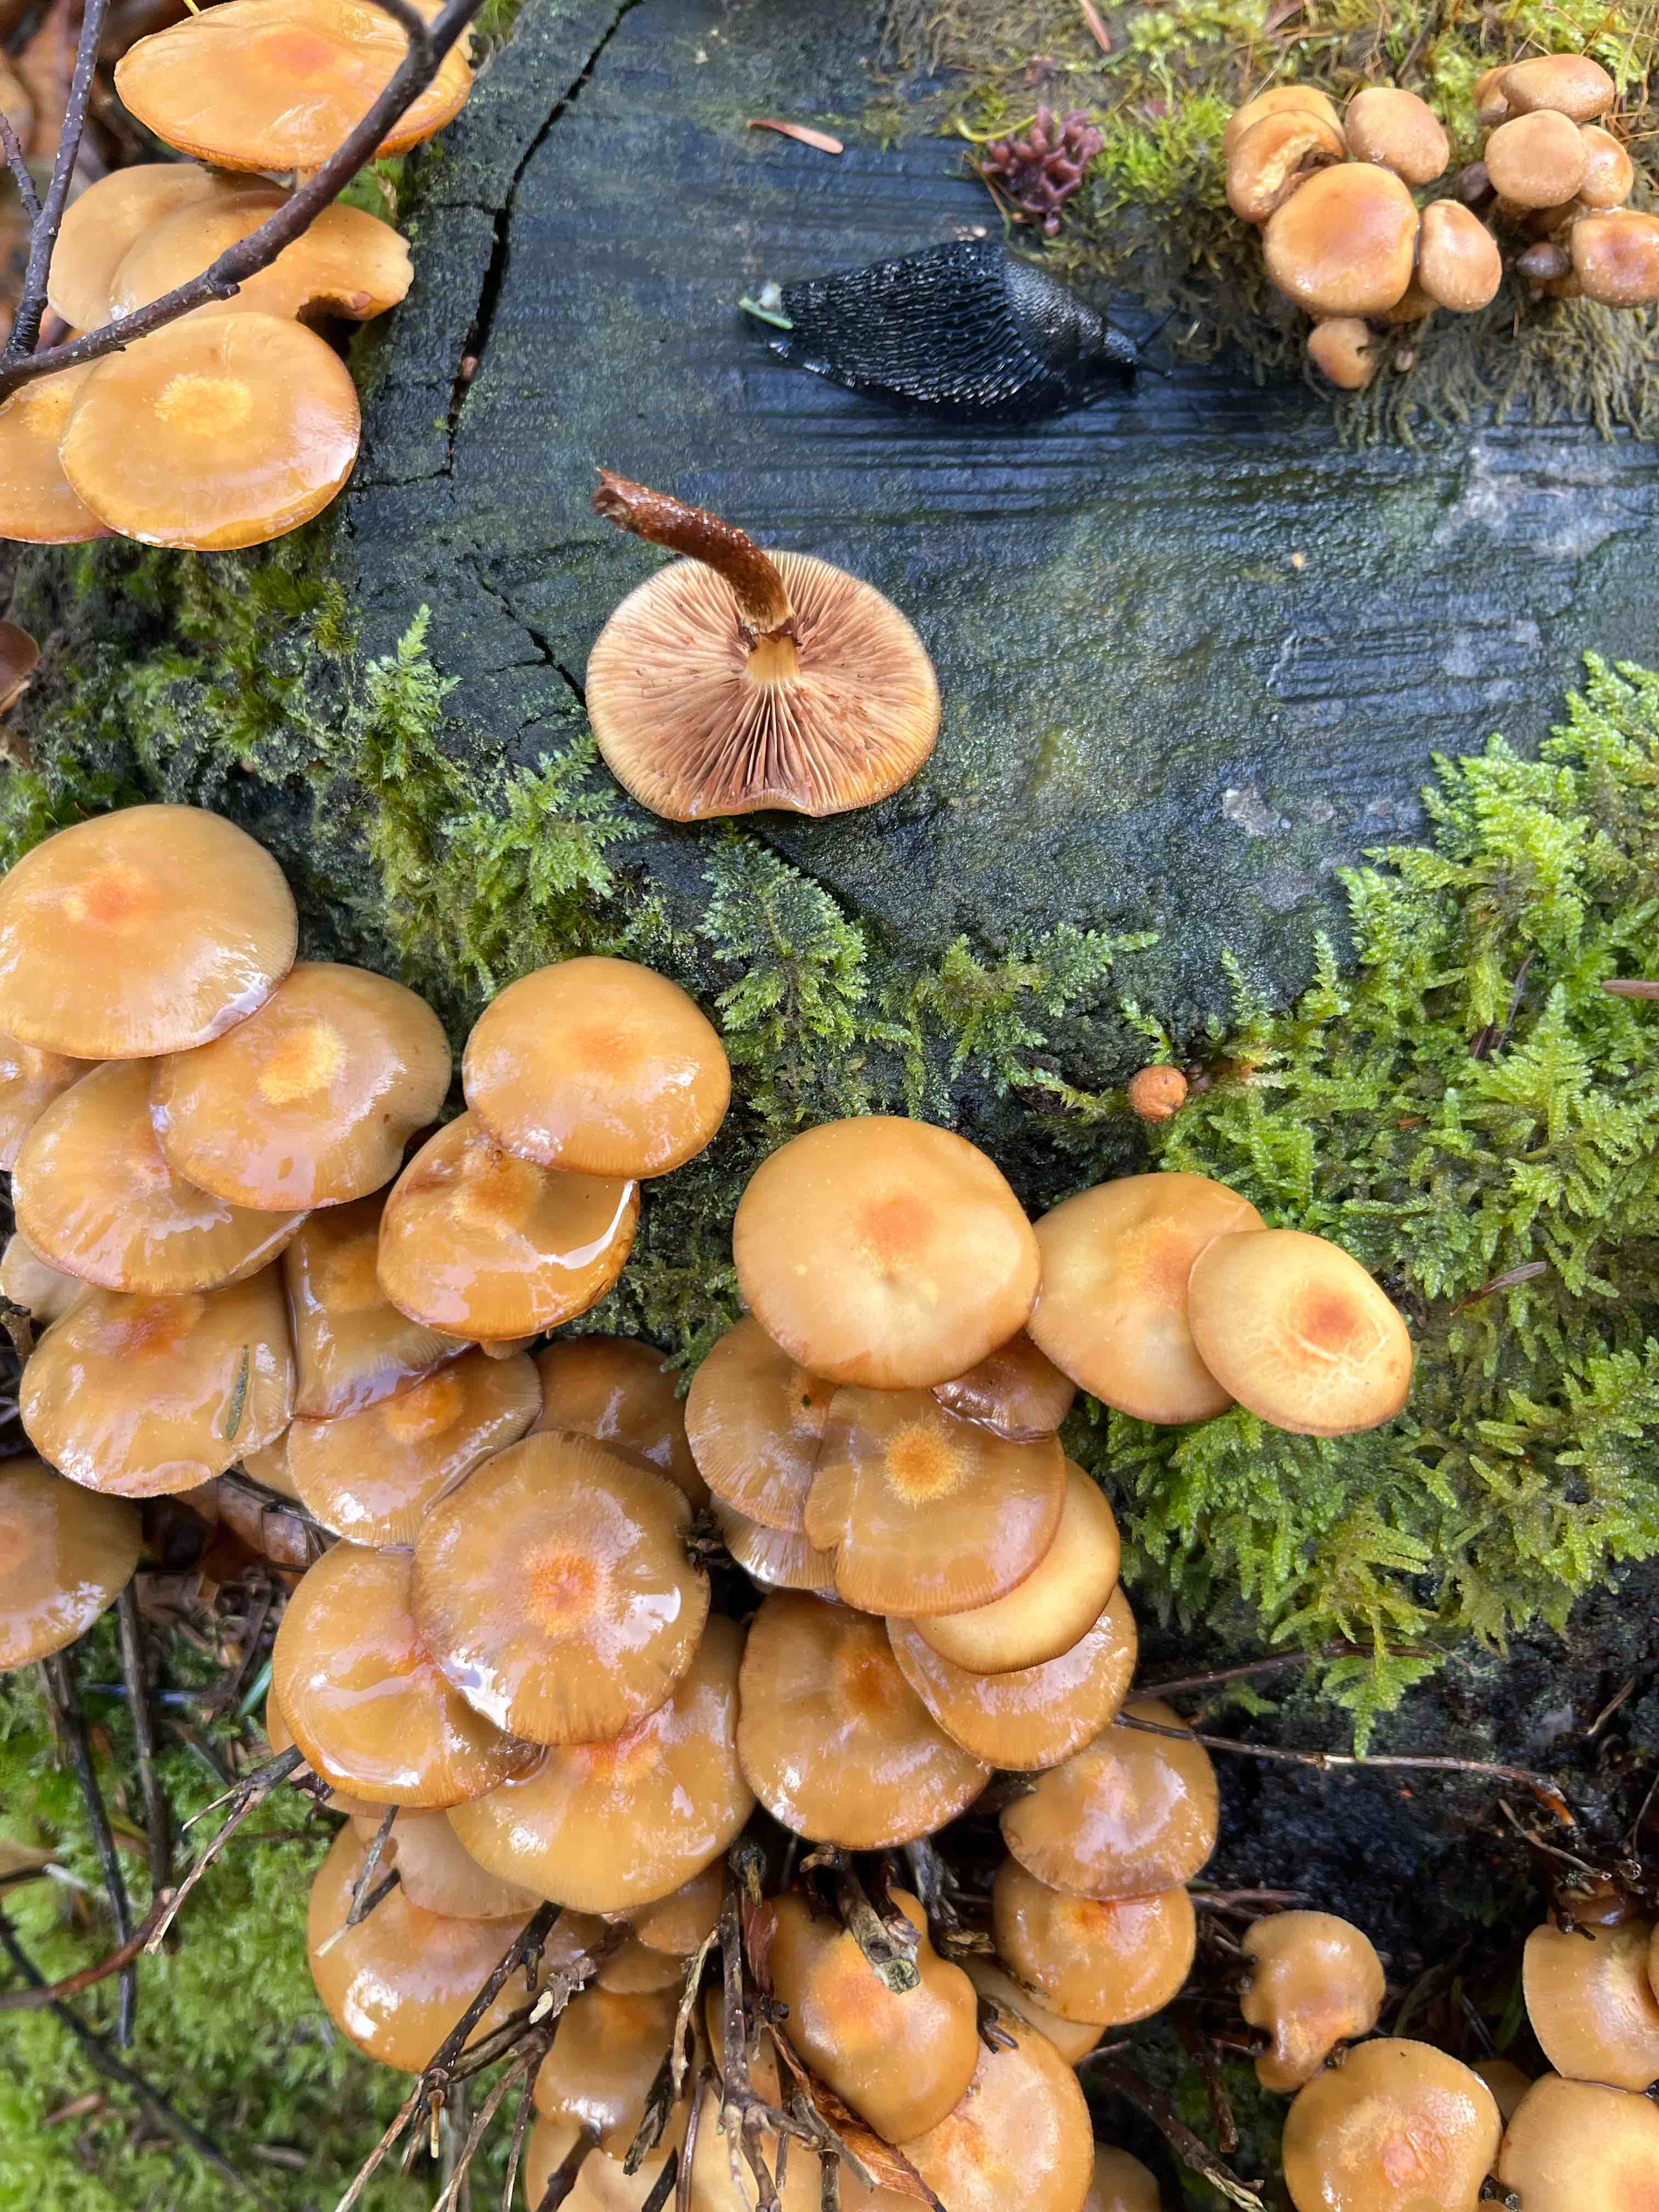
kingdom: Fungi
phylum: Basidiomycota
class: Agaricomycetes
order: Agaricales
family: Strophariaceae
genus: Kuehneromyces
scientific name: Kuehneromyces mutabilis
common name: foranderlig skælhat
